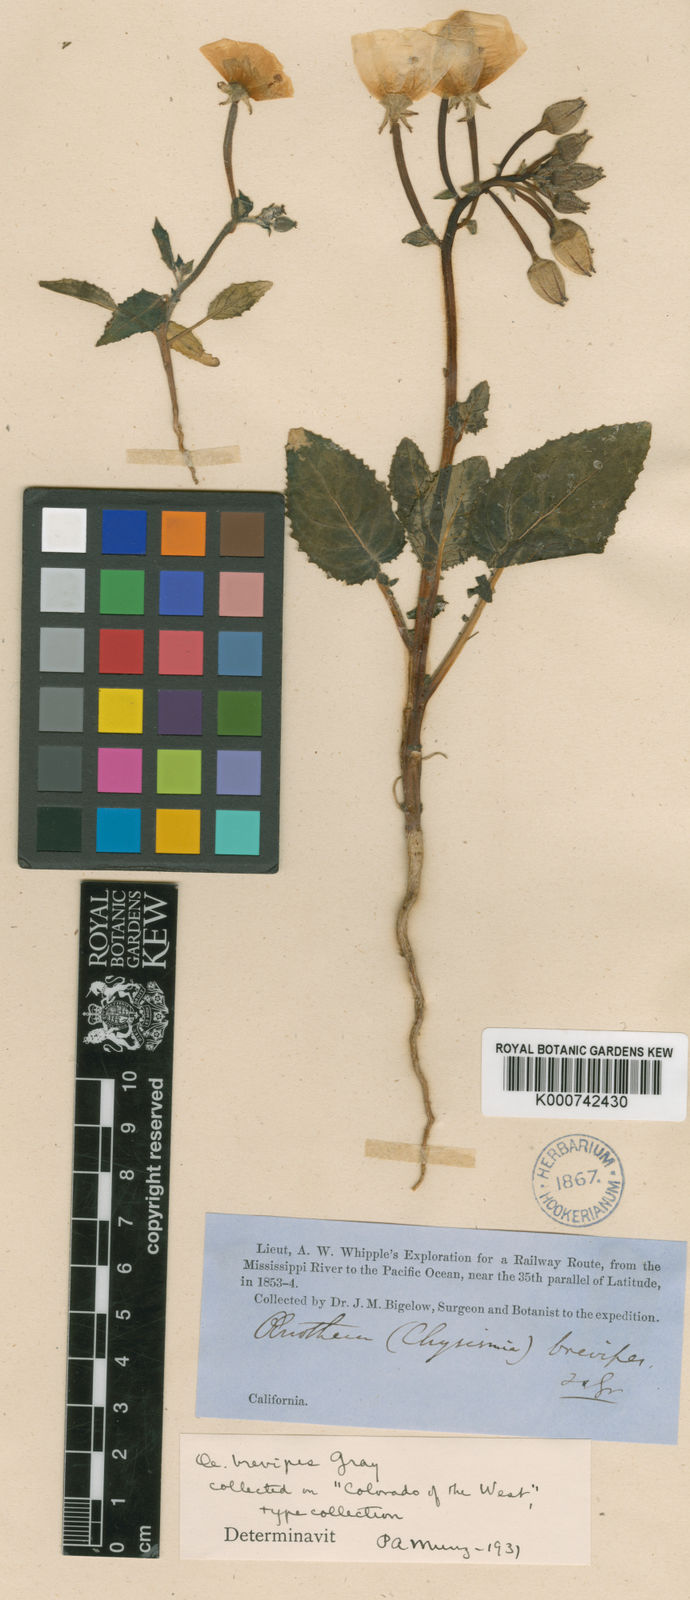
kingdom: Plantae
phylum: Tracheophyta
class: Magnoliopsida
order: Myrtales
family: Onagraceae
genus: Chylismia
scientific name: Chylismia brevipes
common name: Yellow cups
